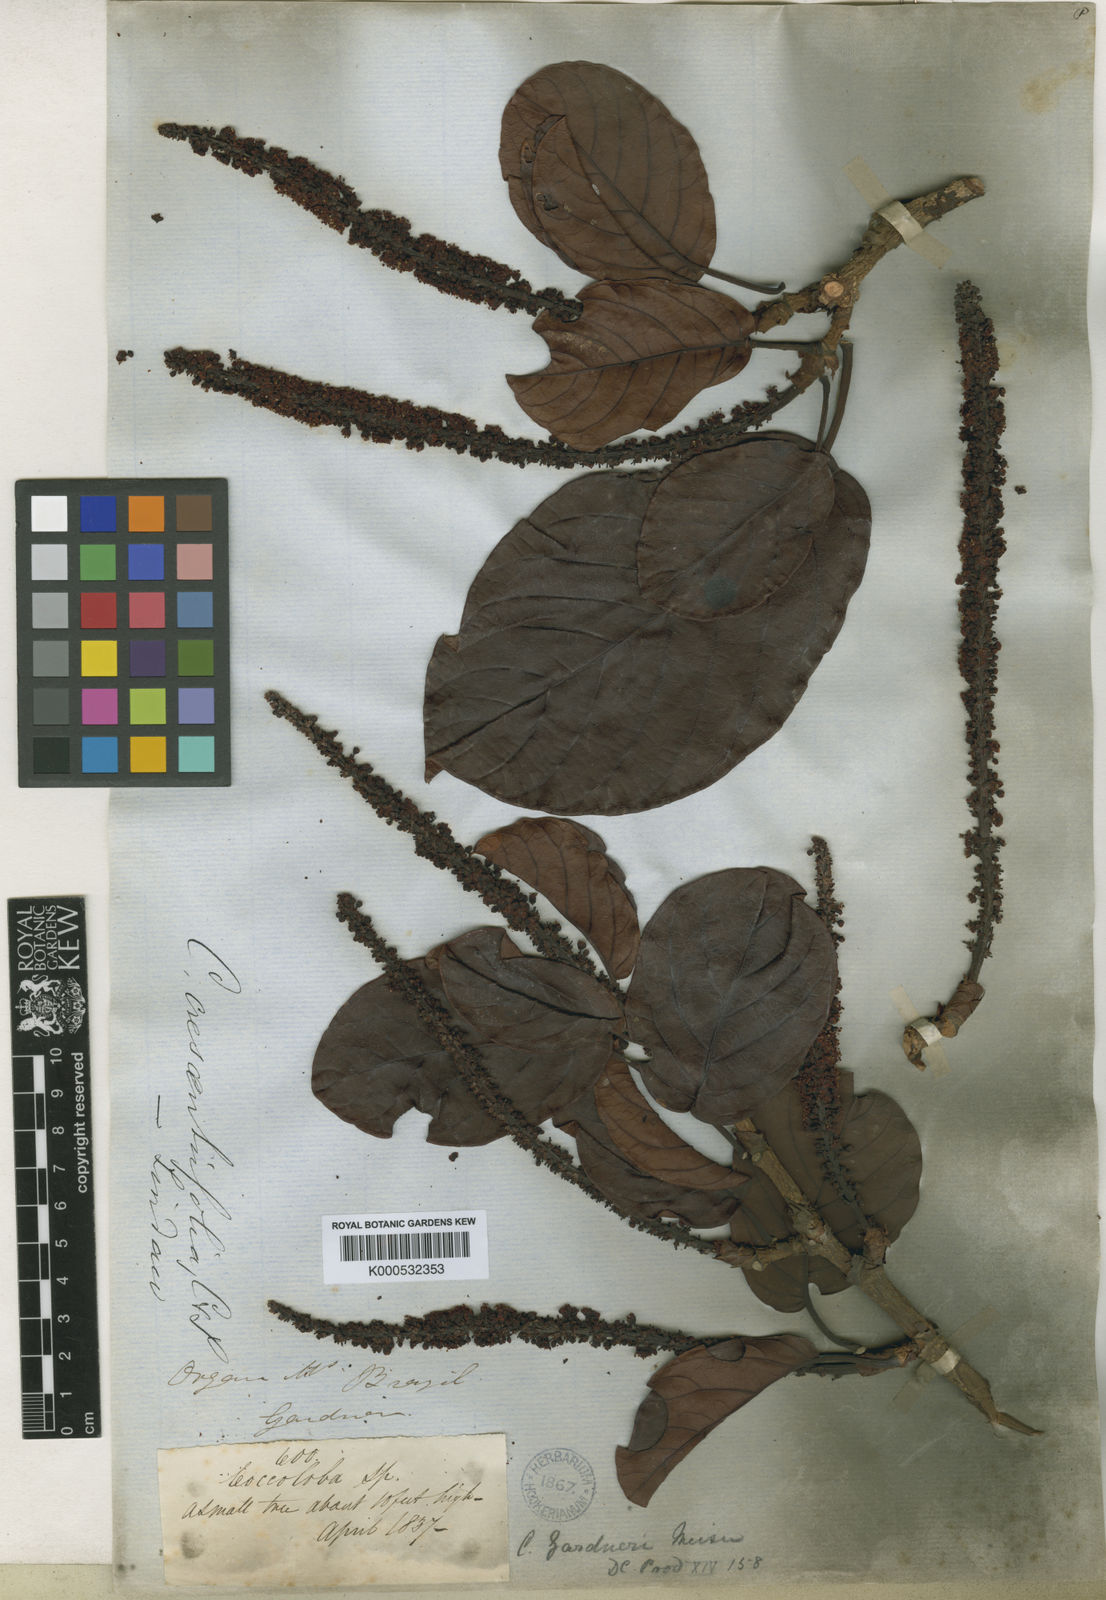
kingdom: Plantae
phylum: Tracheophyta
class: Magnoliopsida
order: Caryophyllales
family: Polygonaceae
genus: Coccoloba
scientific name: Coccoloba arborescens
